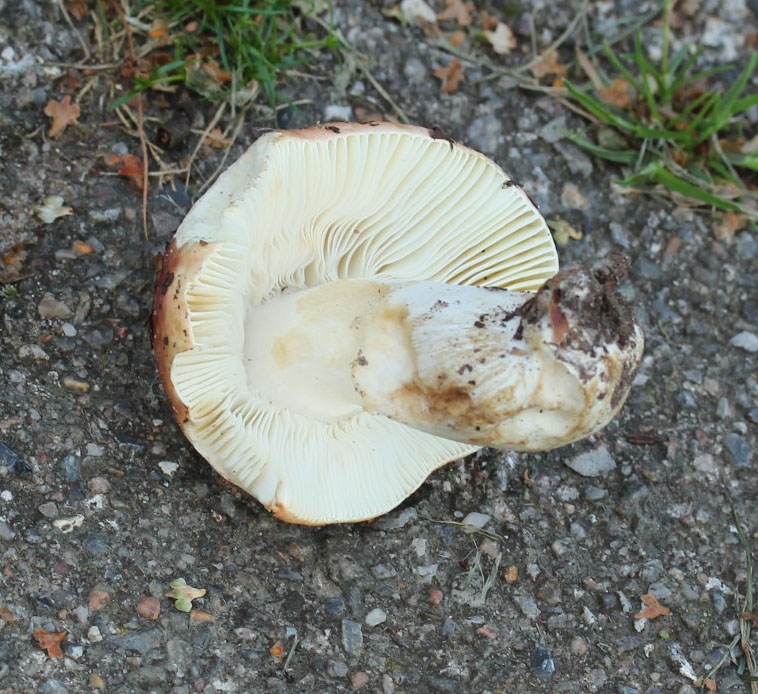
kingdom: Fungi
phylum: Basidiomycota
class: Agaricomycetes
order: Russulales
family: Russulaceae
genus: Russula
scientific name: Russula faginea
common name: bøge-skørhat
